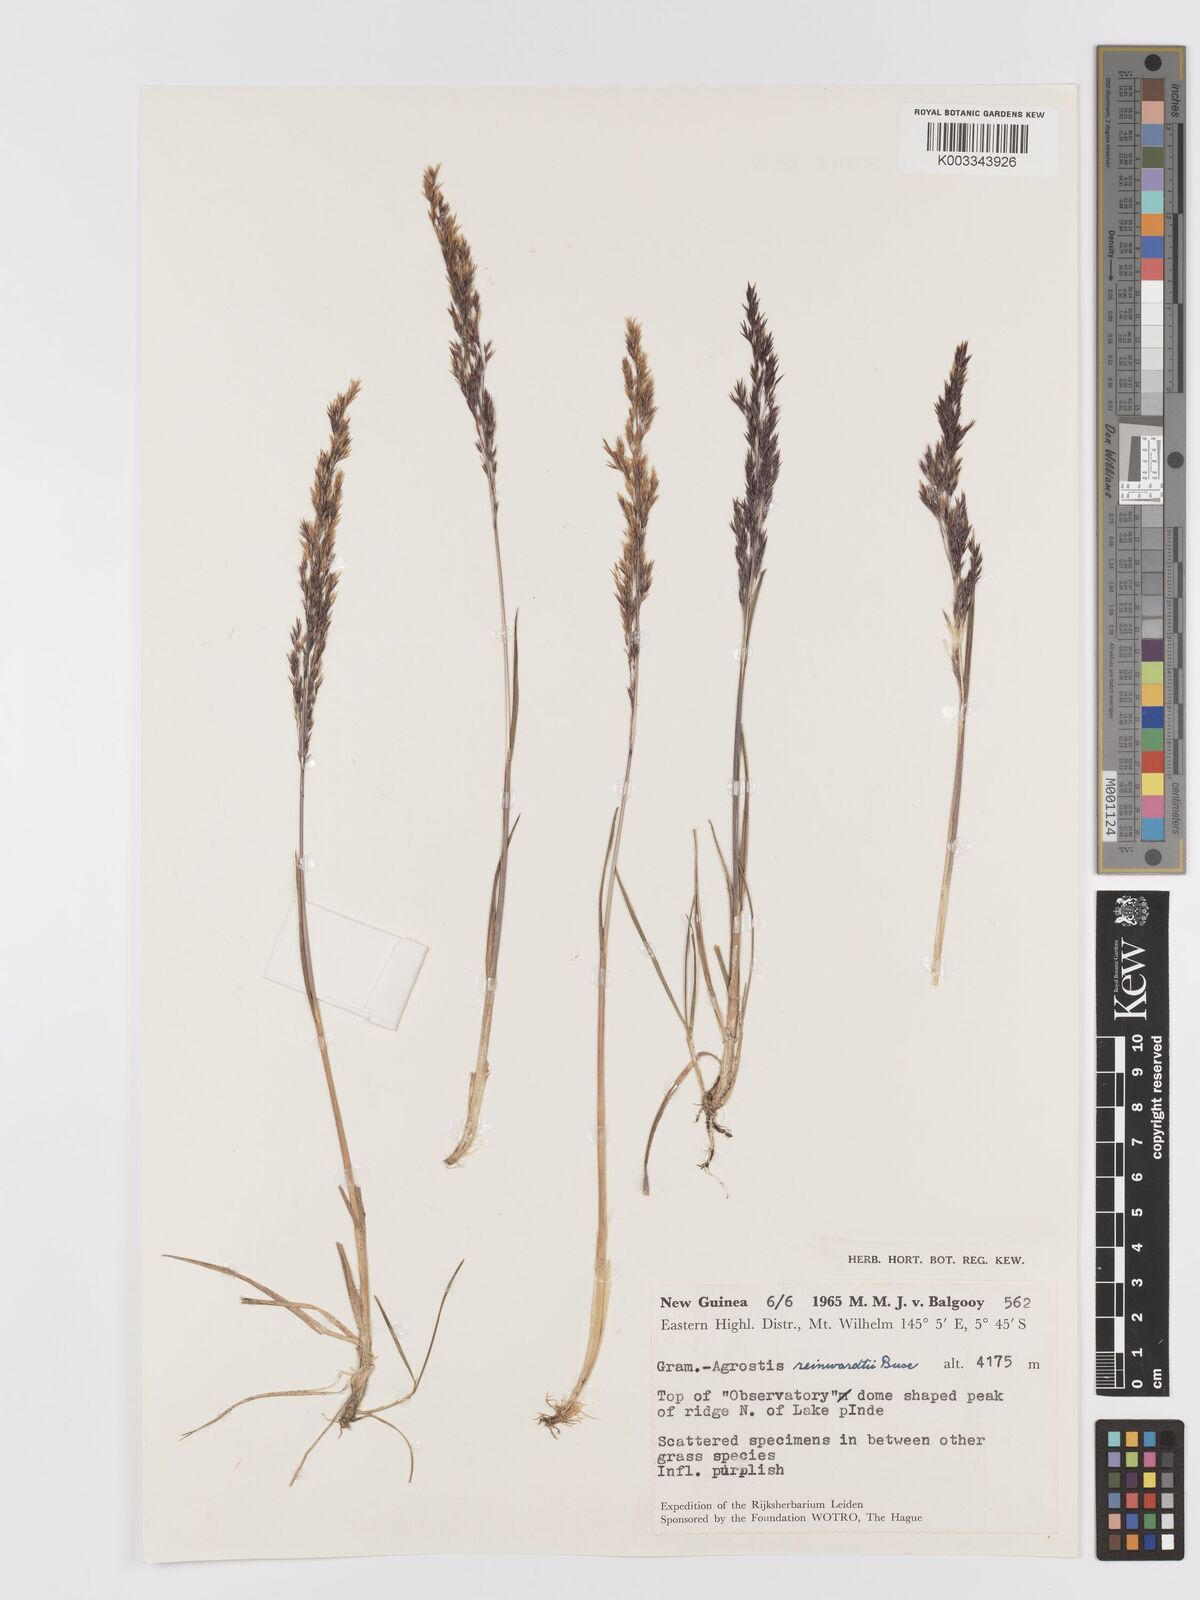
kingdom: Plantae
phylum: Tracheophyta
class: Liliopsida
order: Poales
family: Poaceae
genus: Agrostis
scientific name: Agrostis infirma
